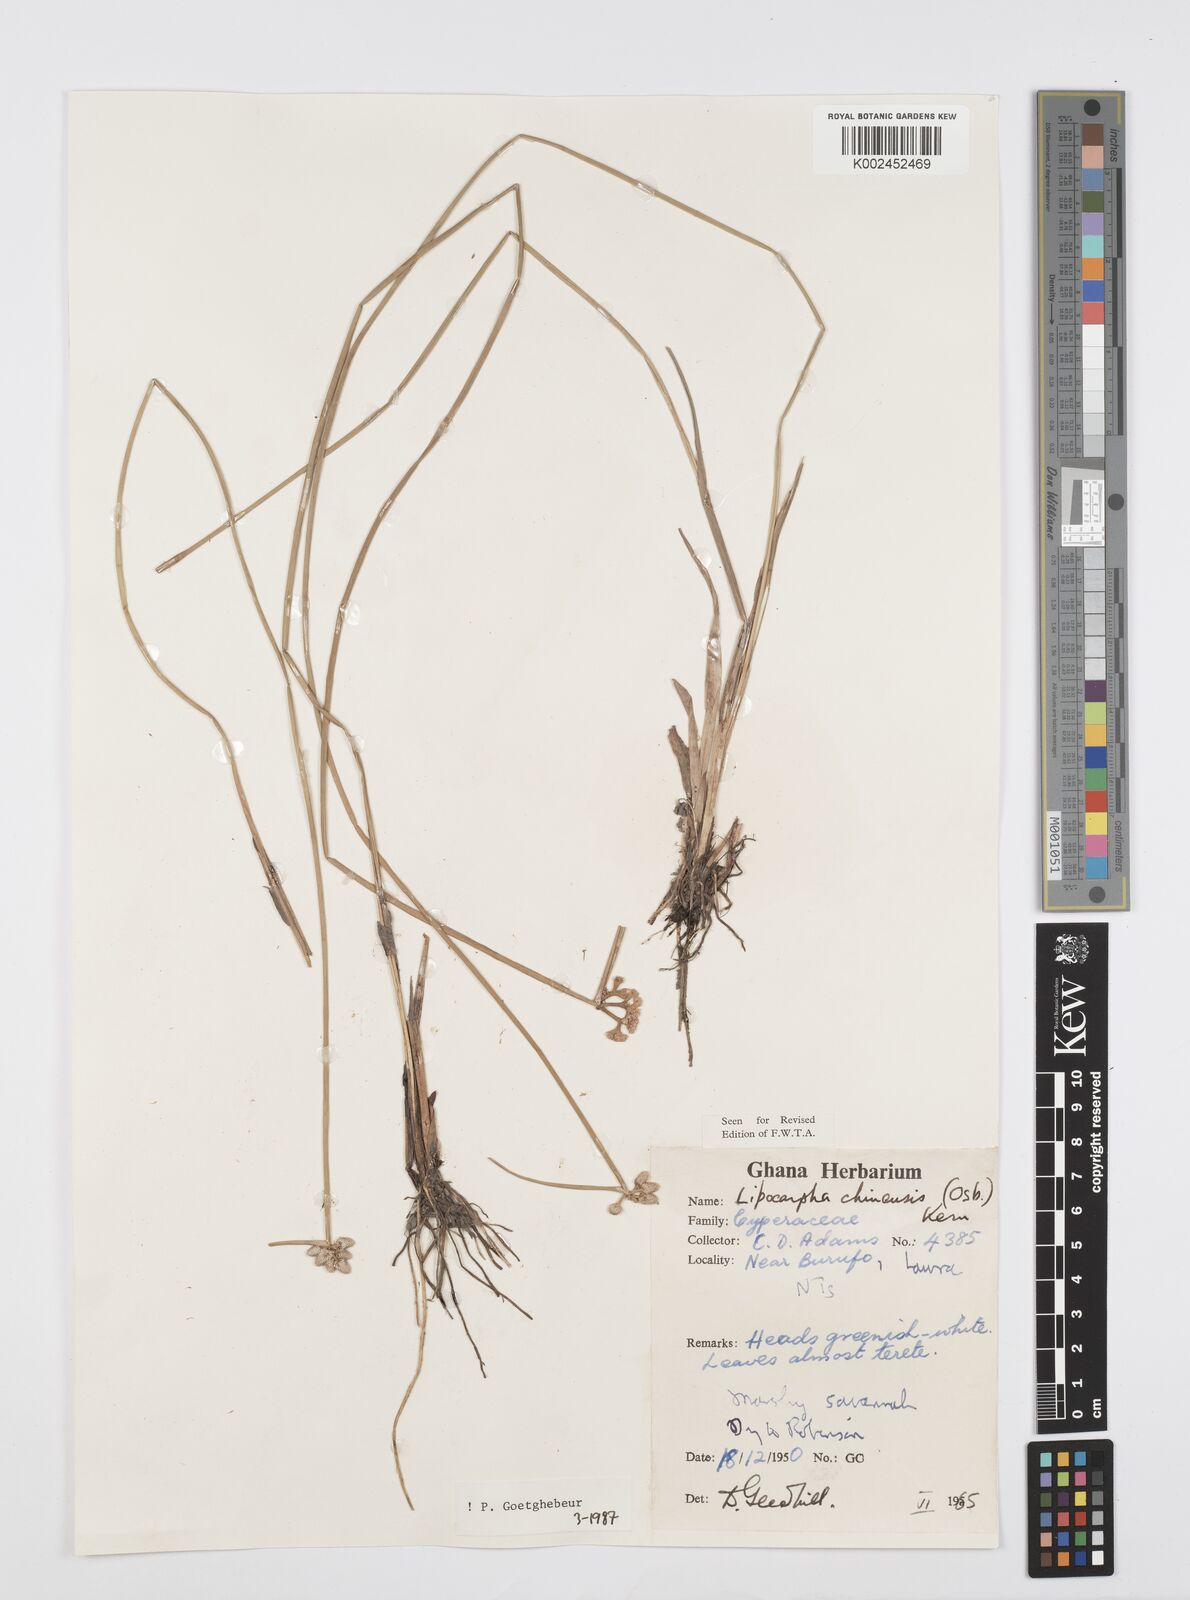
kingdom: Plantae
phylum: Tracheophyta
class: Liliopsida
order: Poales
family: Cyperaceae
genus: Cyperus
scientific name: Cyperus albescens
